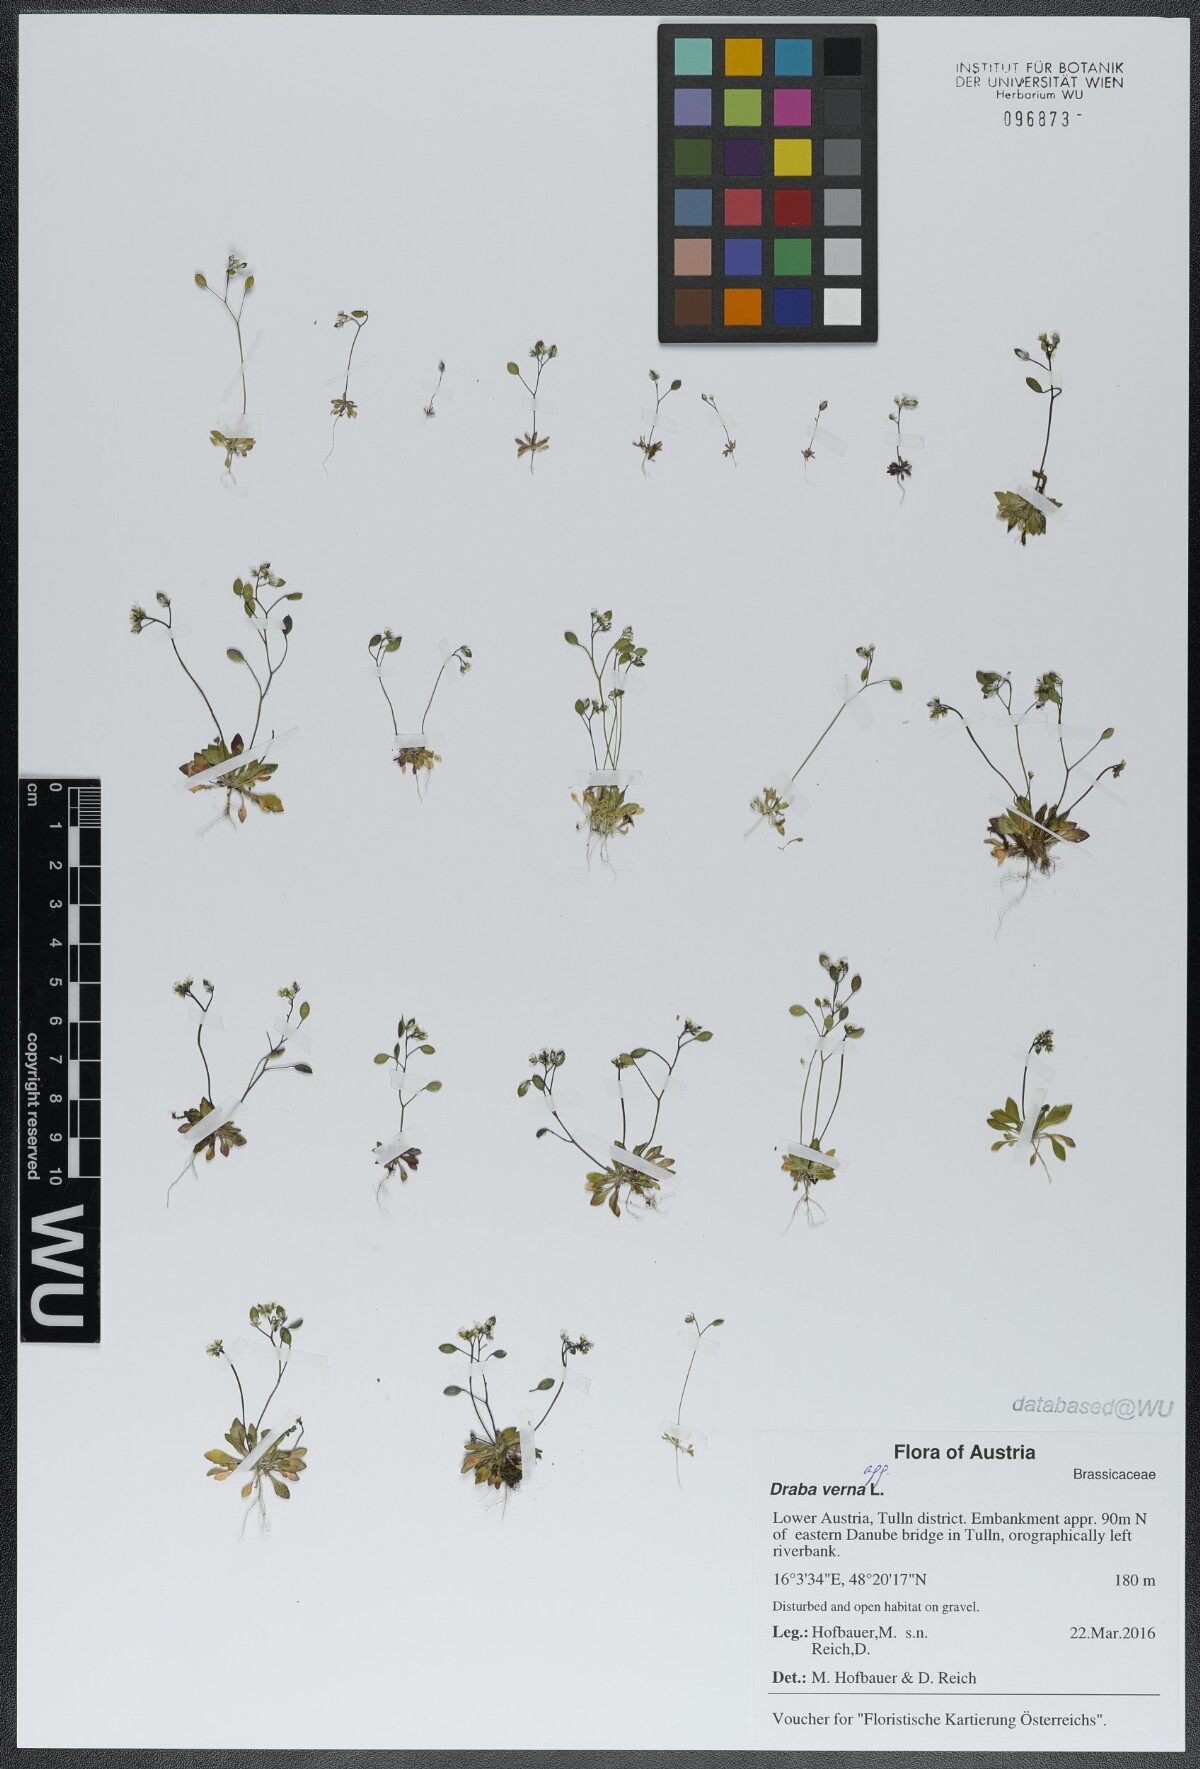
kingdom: Plantae
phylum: Tracheophyta
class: Magnoliopsida
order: Brassicales
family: Brassicaceae
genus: Draba
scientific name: Draba verna
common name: Spring draba
